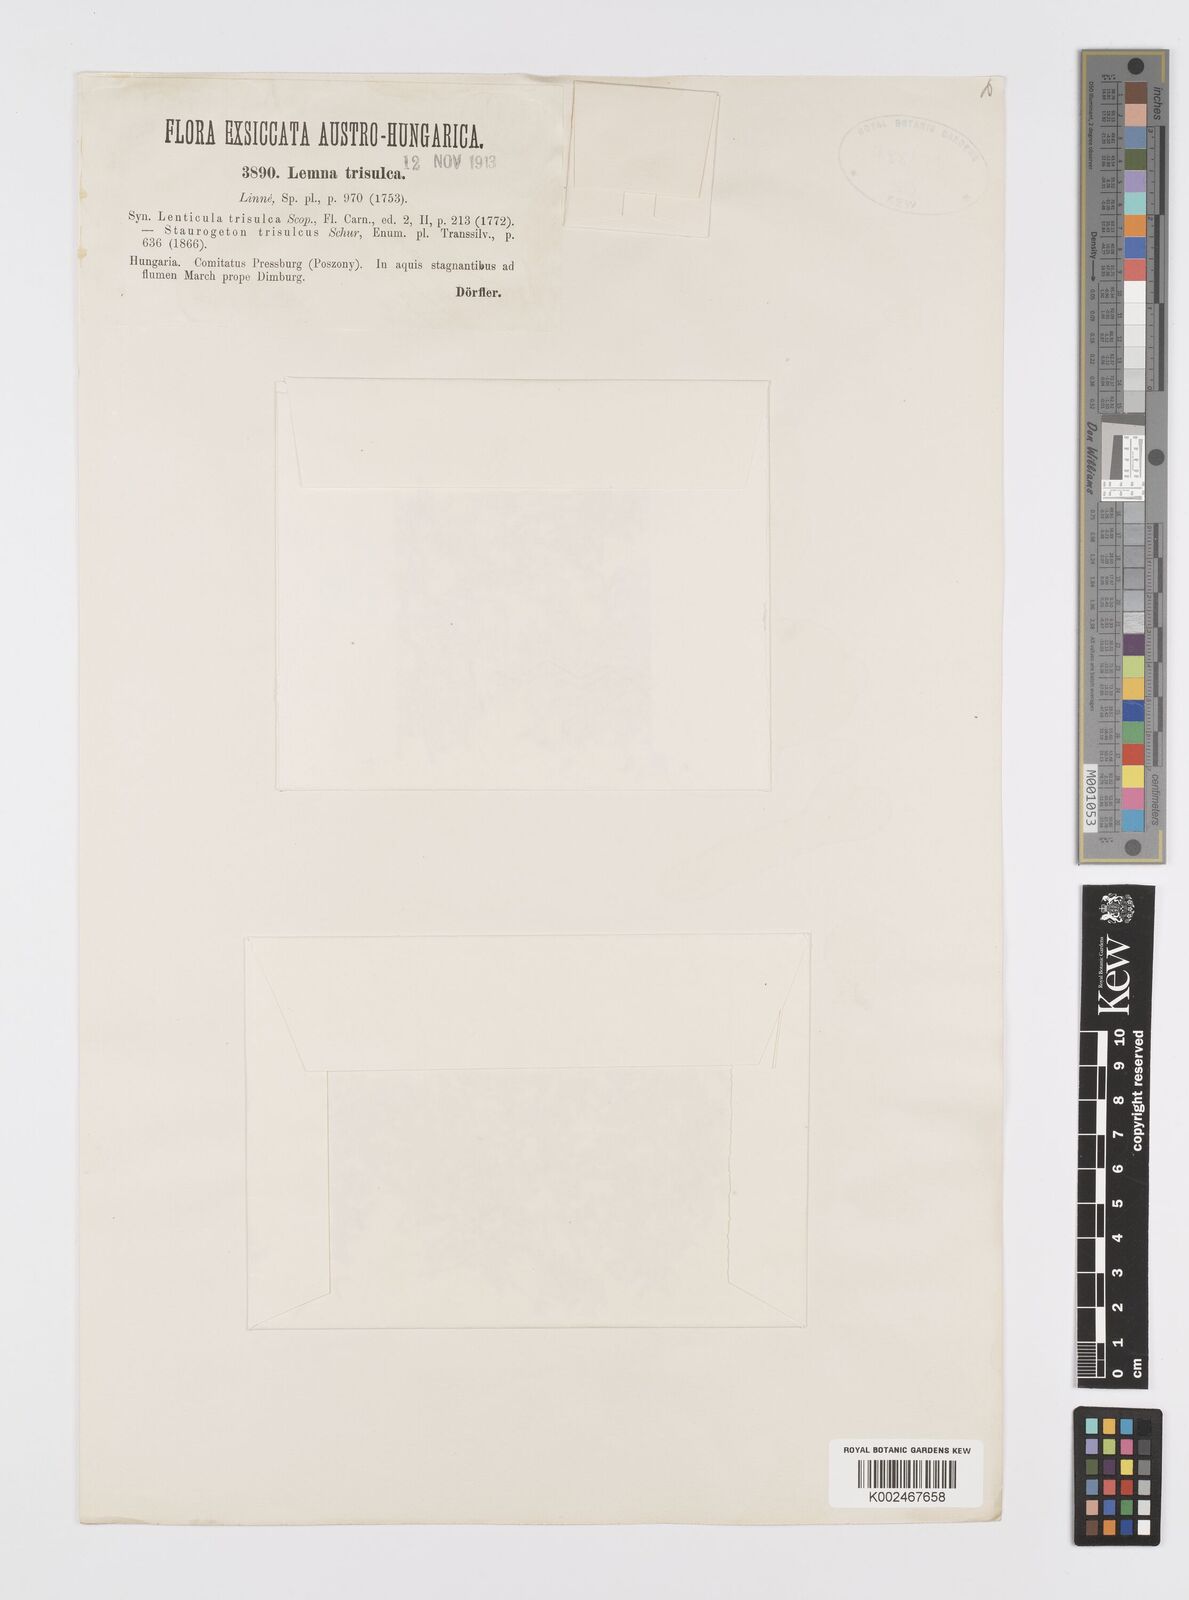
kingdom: Plantae
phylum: Tracheophyta
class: Liliopsida
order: Alismatales
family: Araceae
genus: Lemna
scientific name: Lemna trisulca
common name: Ivy-leaved duckweed
